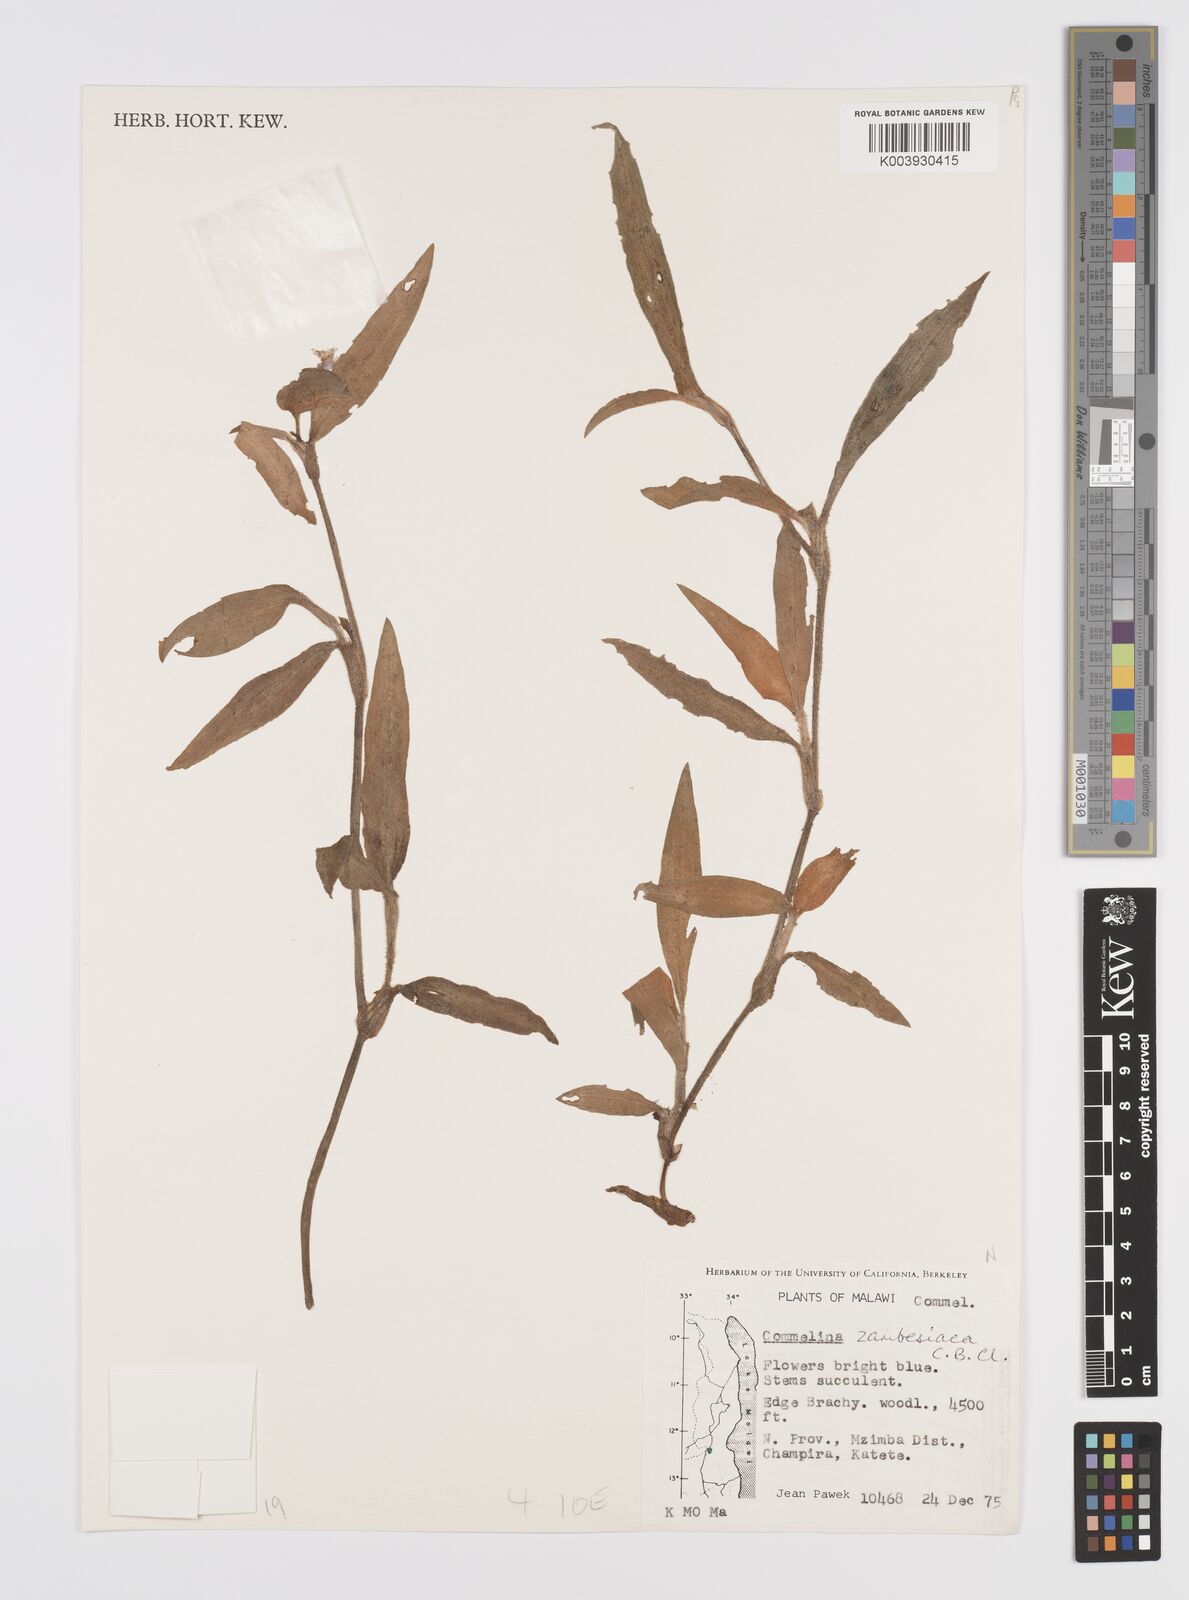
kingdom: Plantae
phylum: Tracheophyta
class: Liliopsida
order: Commelinales
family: Commelinaceae
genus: Commelina
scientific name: Commelina zambesica
